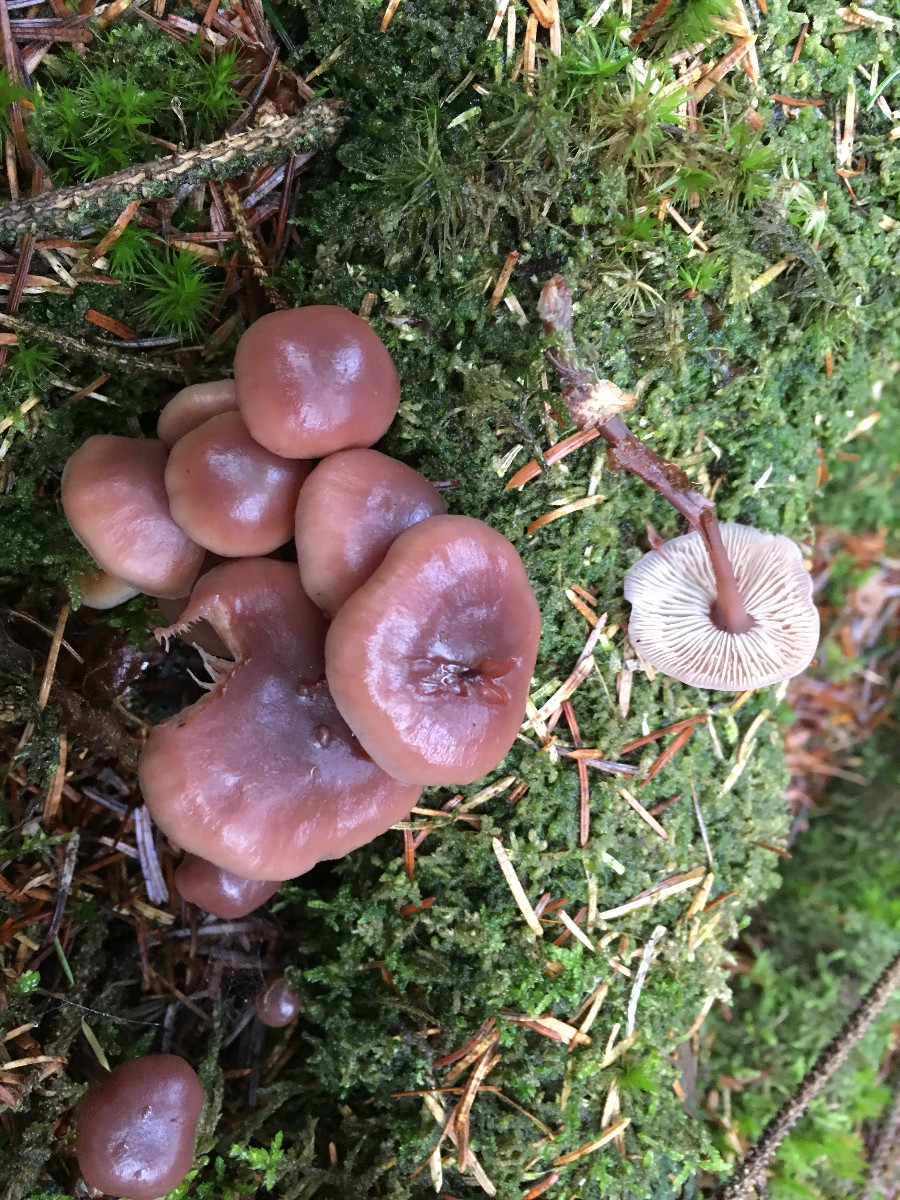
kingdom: Fungi
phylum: Basidiomycota
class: Agaricomycetes
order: Agaricales
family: Omphalotaceae
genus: Connopus
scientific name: Connopus acervatus
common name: tue-fladhat
